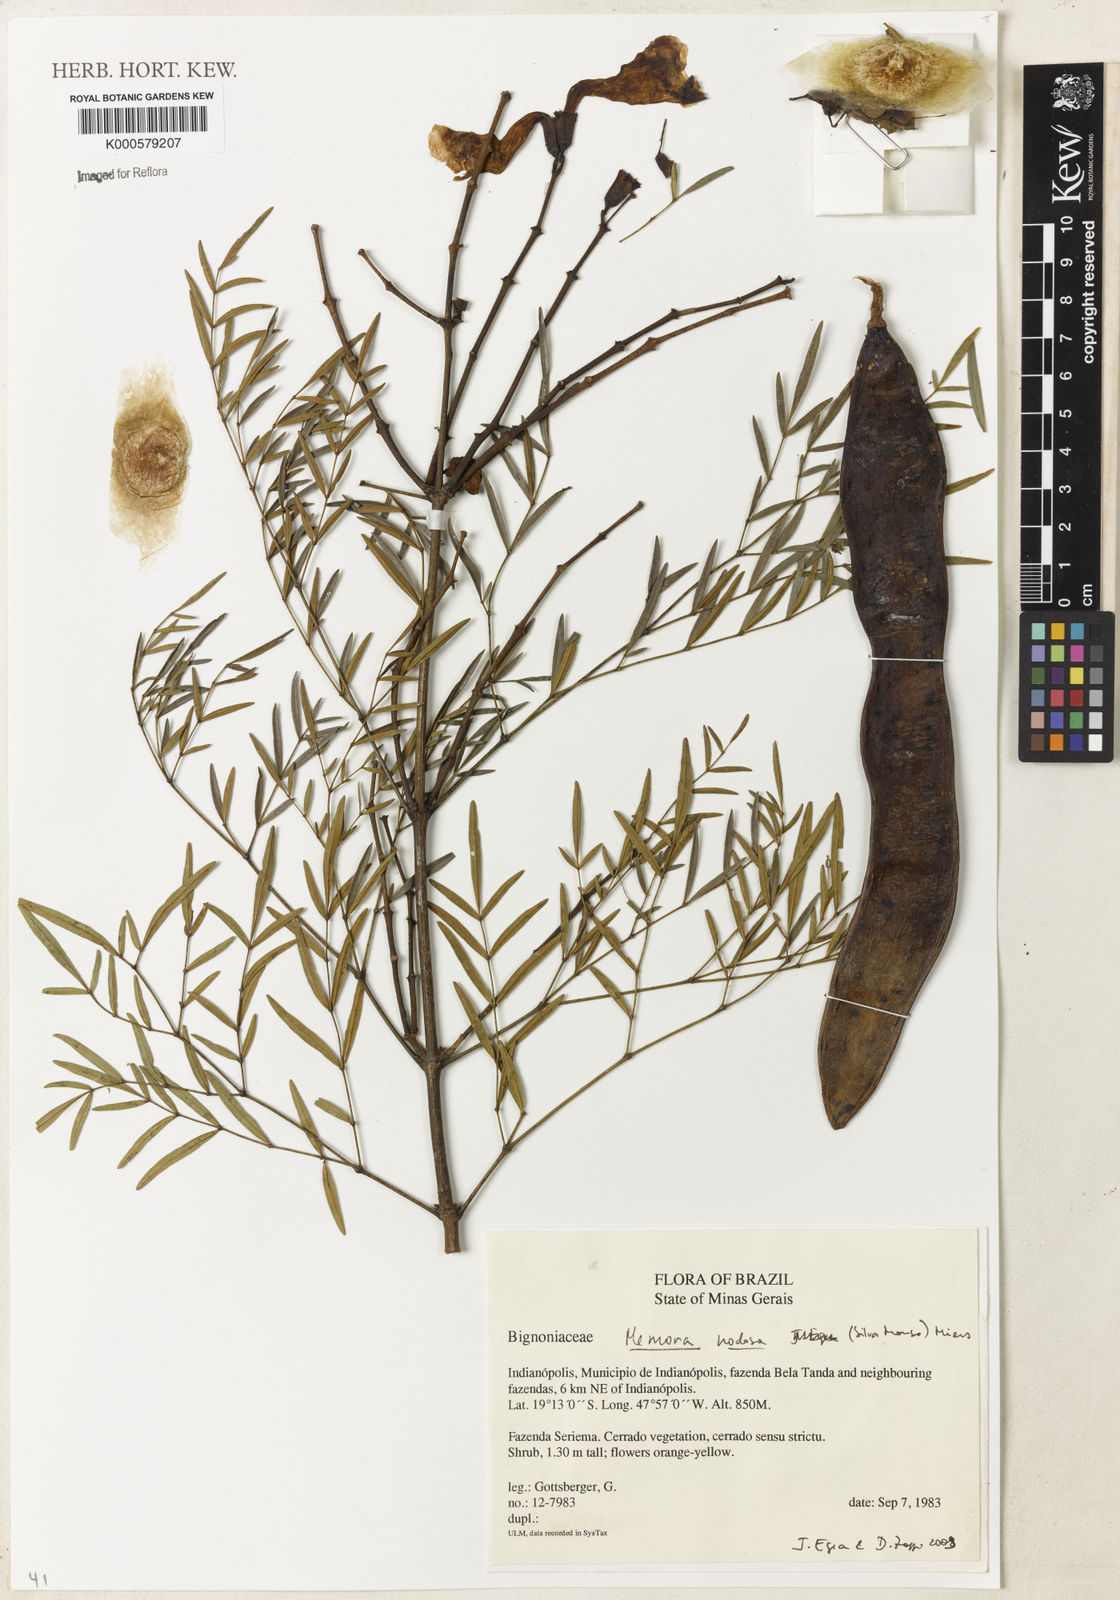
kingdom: Plantae
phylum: Tracheophyta
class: Magnoliopsida
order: Lamiales
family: Bignoniaceae
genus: Adenocalymma
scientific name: Adenocalymma nodosum
